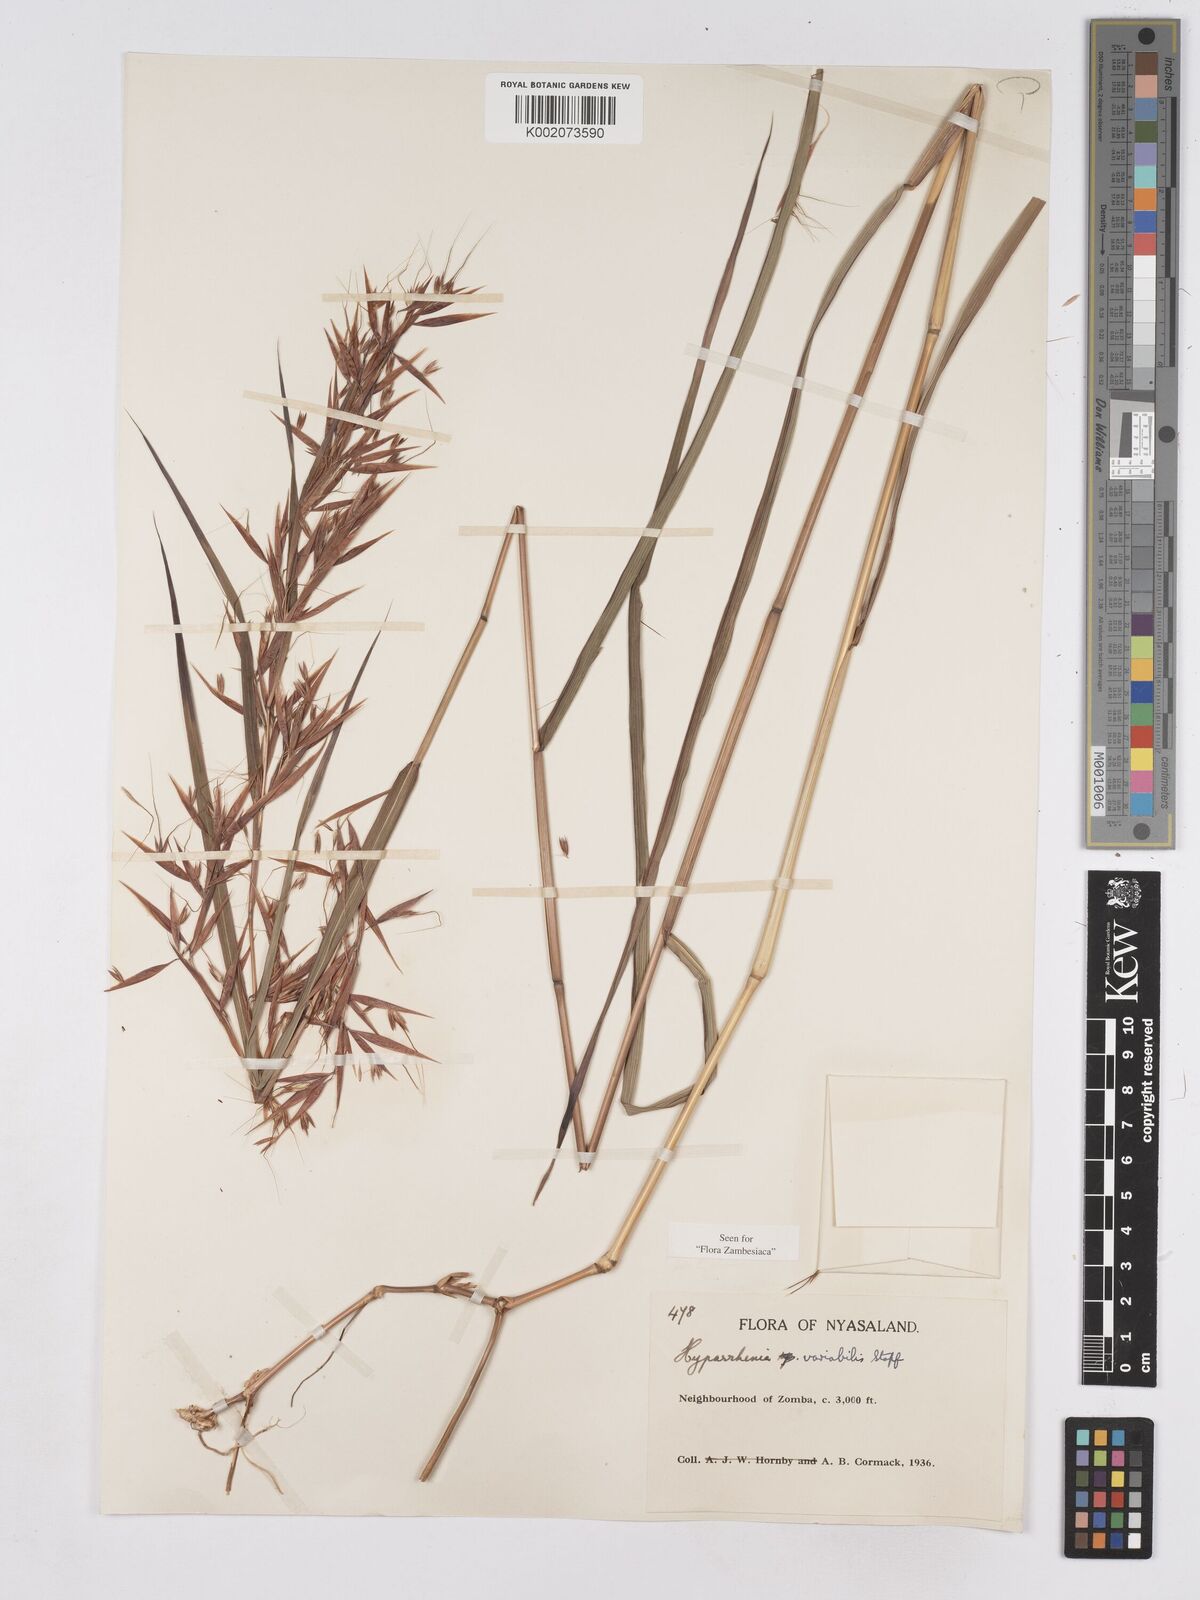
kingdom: Plantae
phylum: Tracheophyta
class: Liliopsida
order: Poales
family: Poaceae
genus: Hyparrhenia
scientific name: Hyparrhenia variabilis
